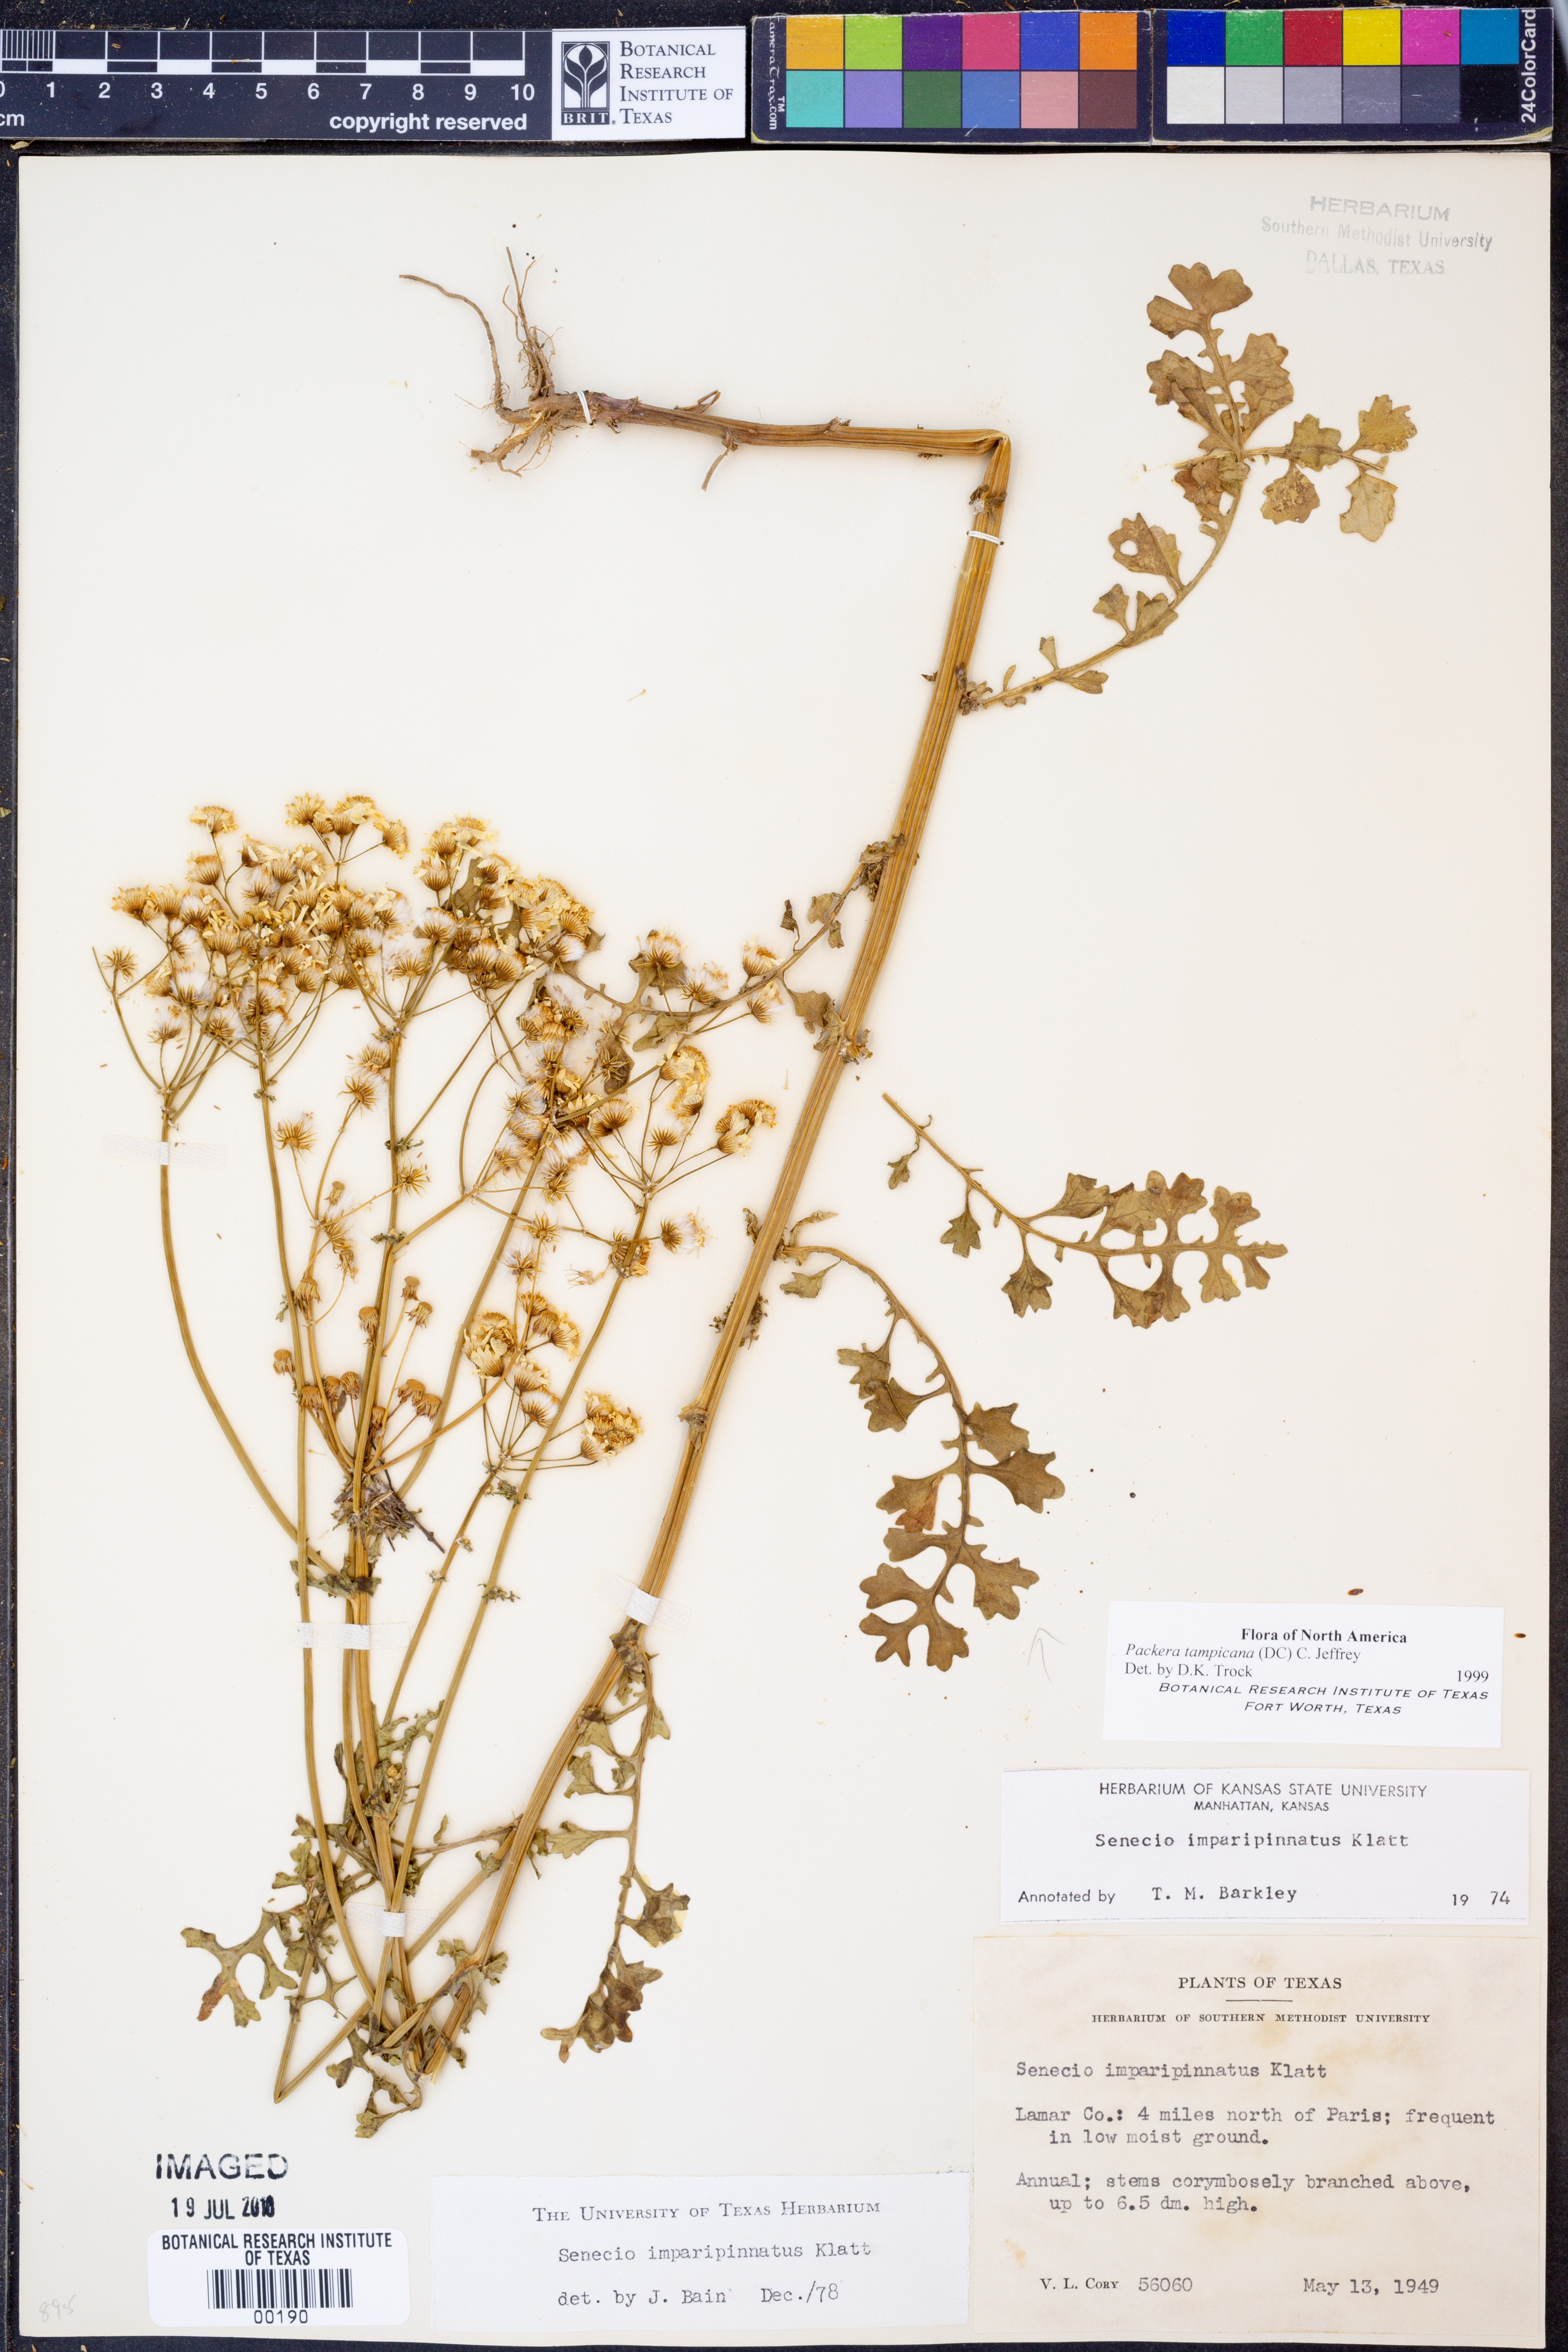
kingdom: Plantae
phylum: Tracheophyta
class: Magnoliopsida
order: Asterales
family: Asteraceae
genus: Packera
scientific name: Packera tampicana
